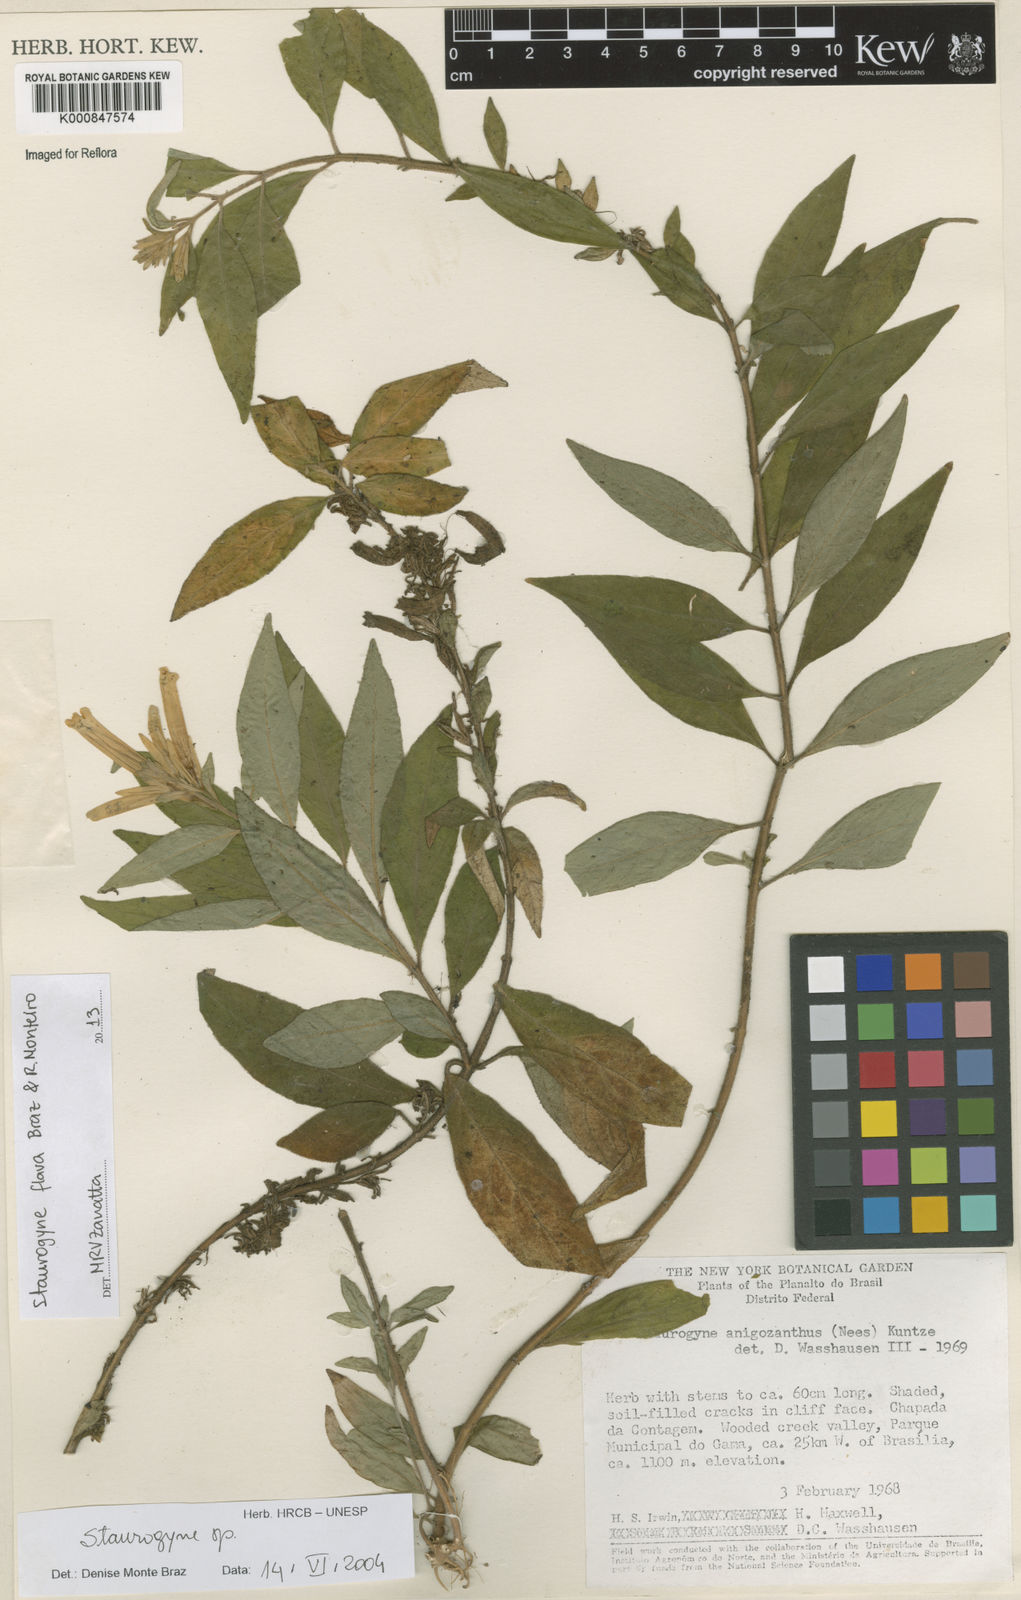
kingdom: Plantae
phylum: Tracheophyta
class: Magnoliopsida
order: Lamiales
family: Acanthaceae
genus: Staurogyne
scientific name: Staurogyne flava
